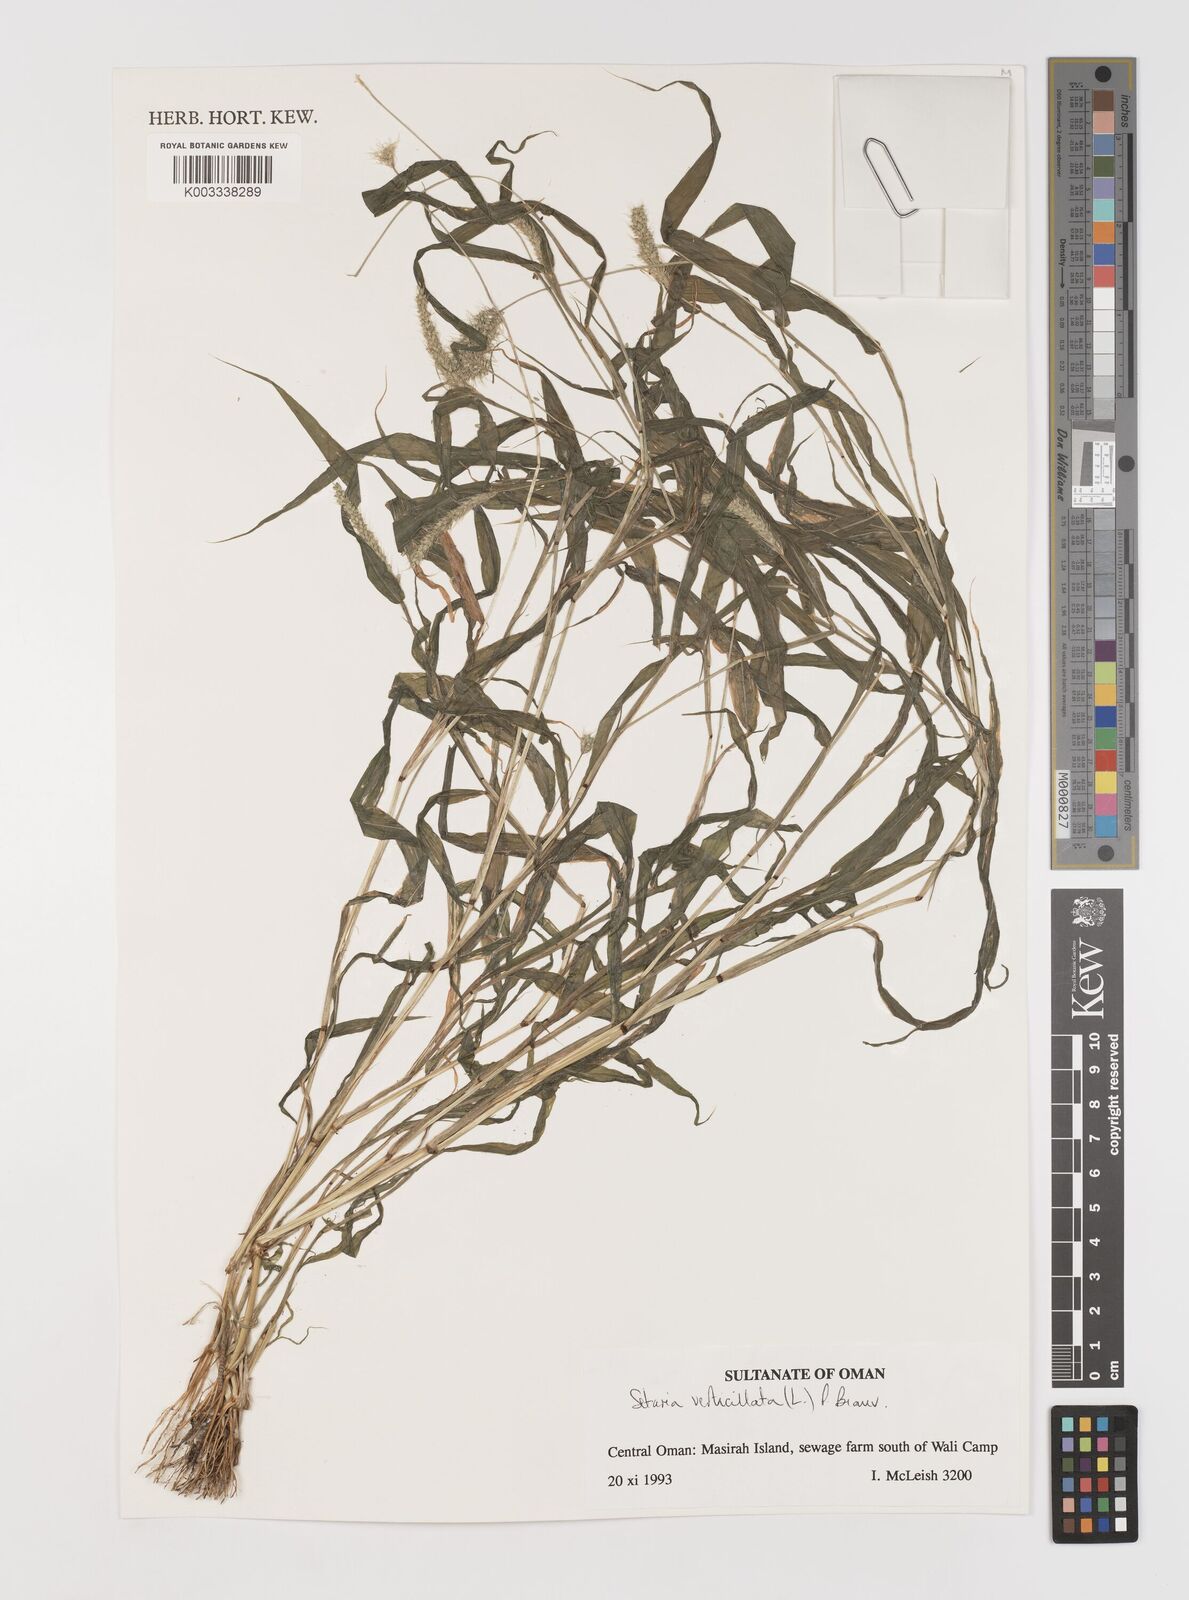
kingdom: Plantae
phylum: Tracheophyta
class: Liliopsida
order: Poales
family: Poaceae
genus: Setaria
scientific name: Setaria verticillata
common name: Hooked bristlegrass
